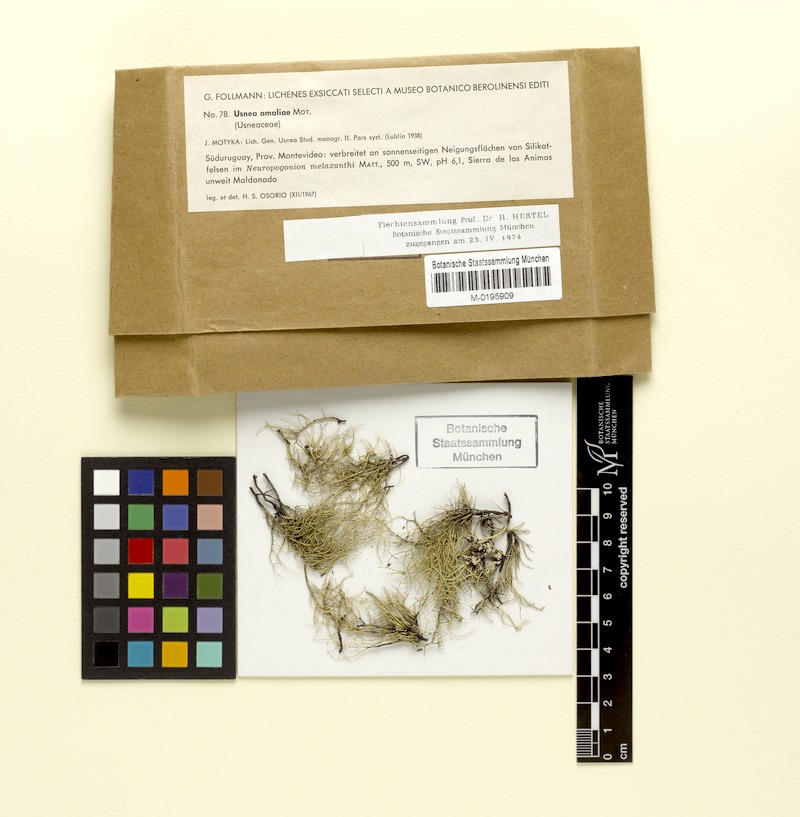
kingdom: Fungi
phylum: Ascomycota
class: Lecanoromycetes
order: Lecanorales
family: Parmeliaceae
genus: Usnea
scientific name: Usnea amaliae
